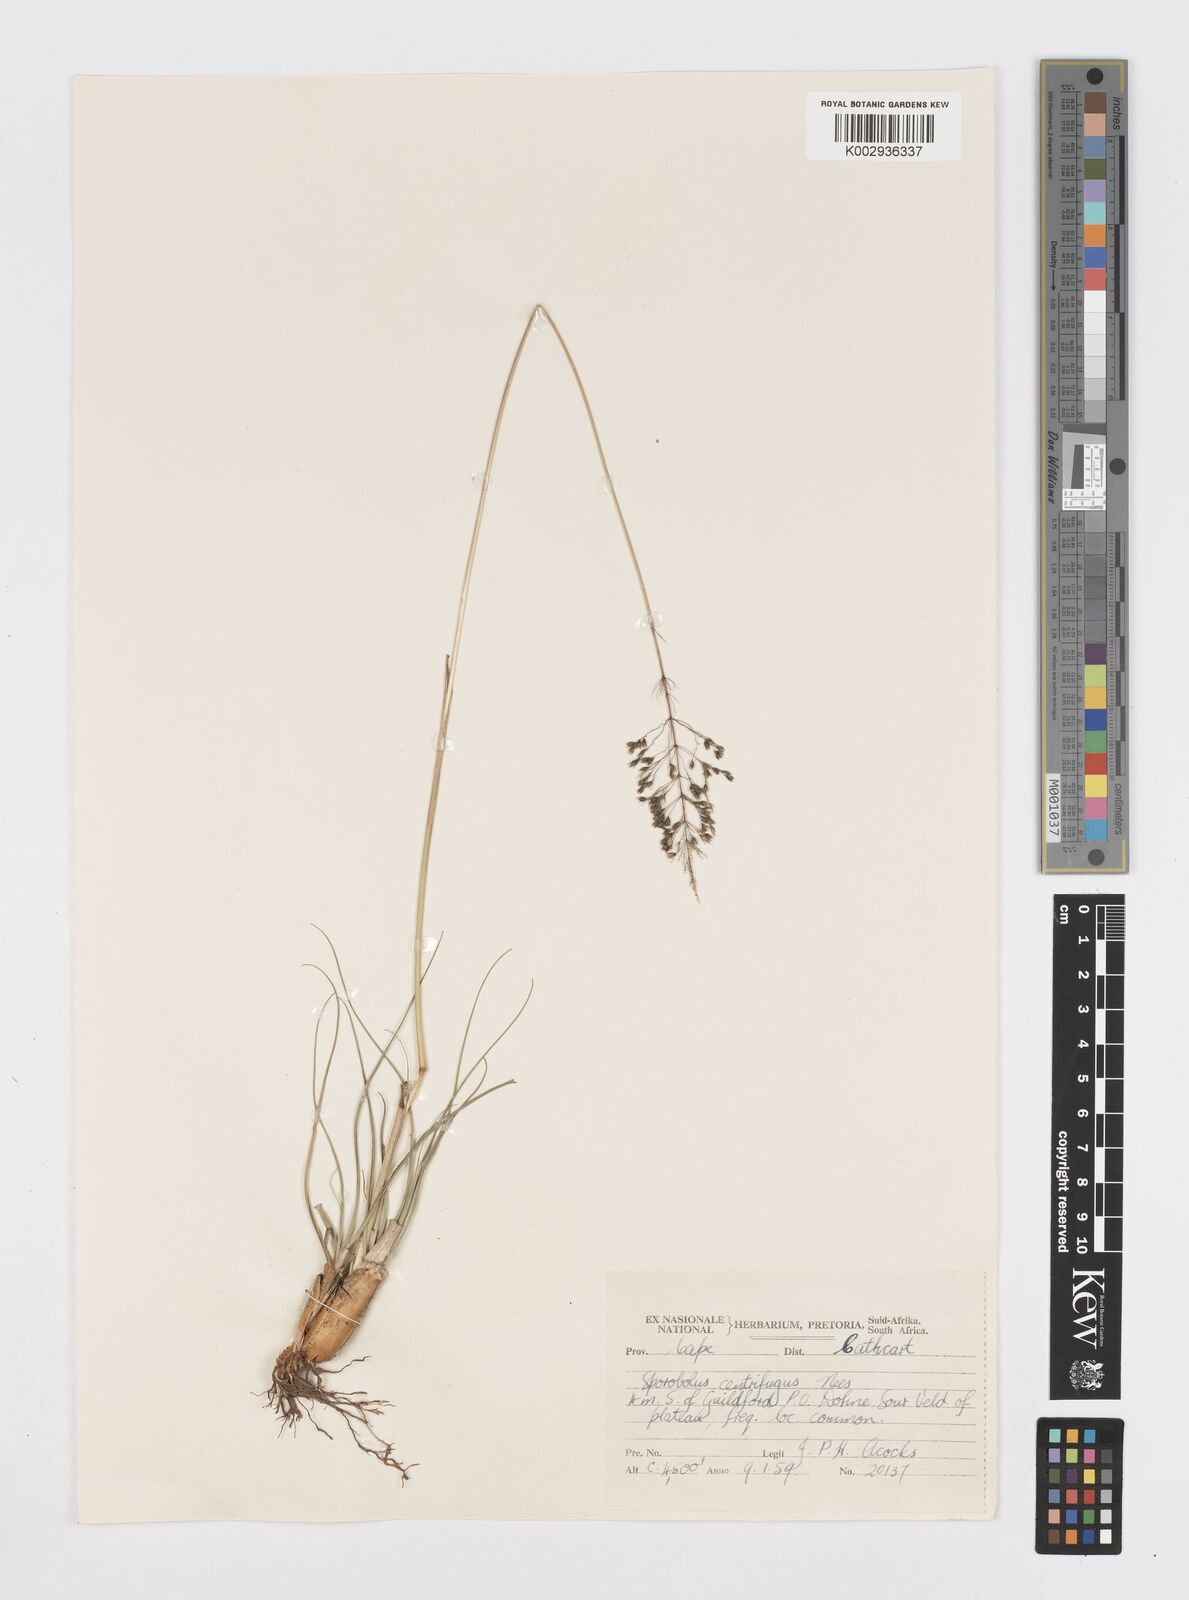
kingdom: Plantae
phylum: Tracheophyta
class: Liliopsida
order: Poales
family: Poaceae
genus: Sporobolus
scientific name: Sporobolus centrifugus
